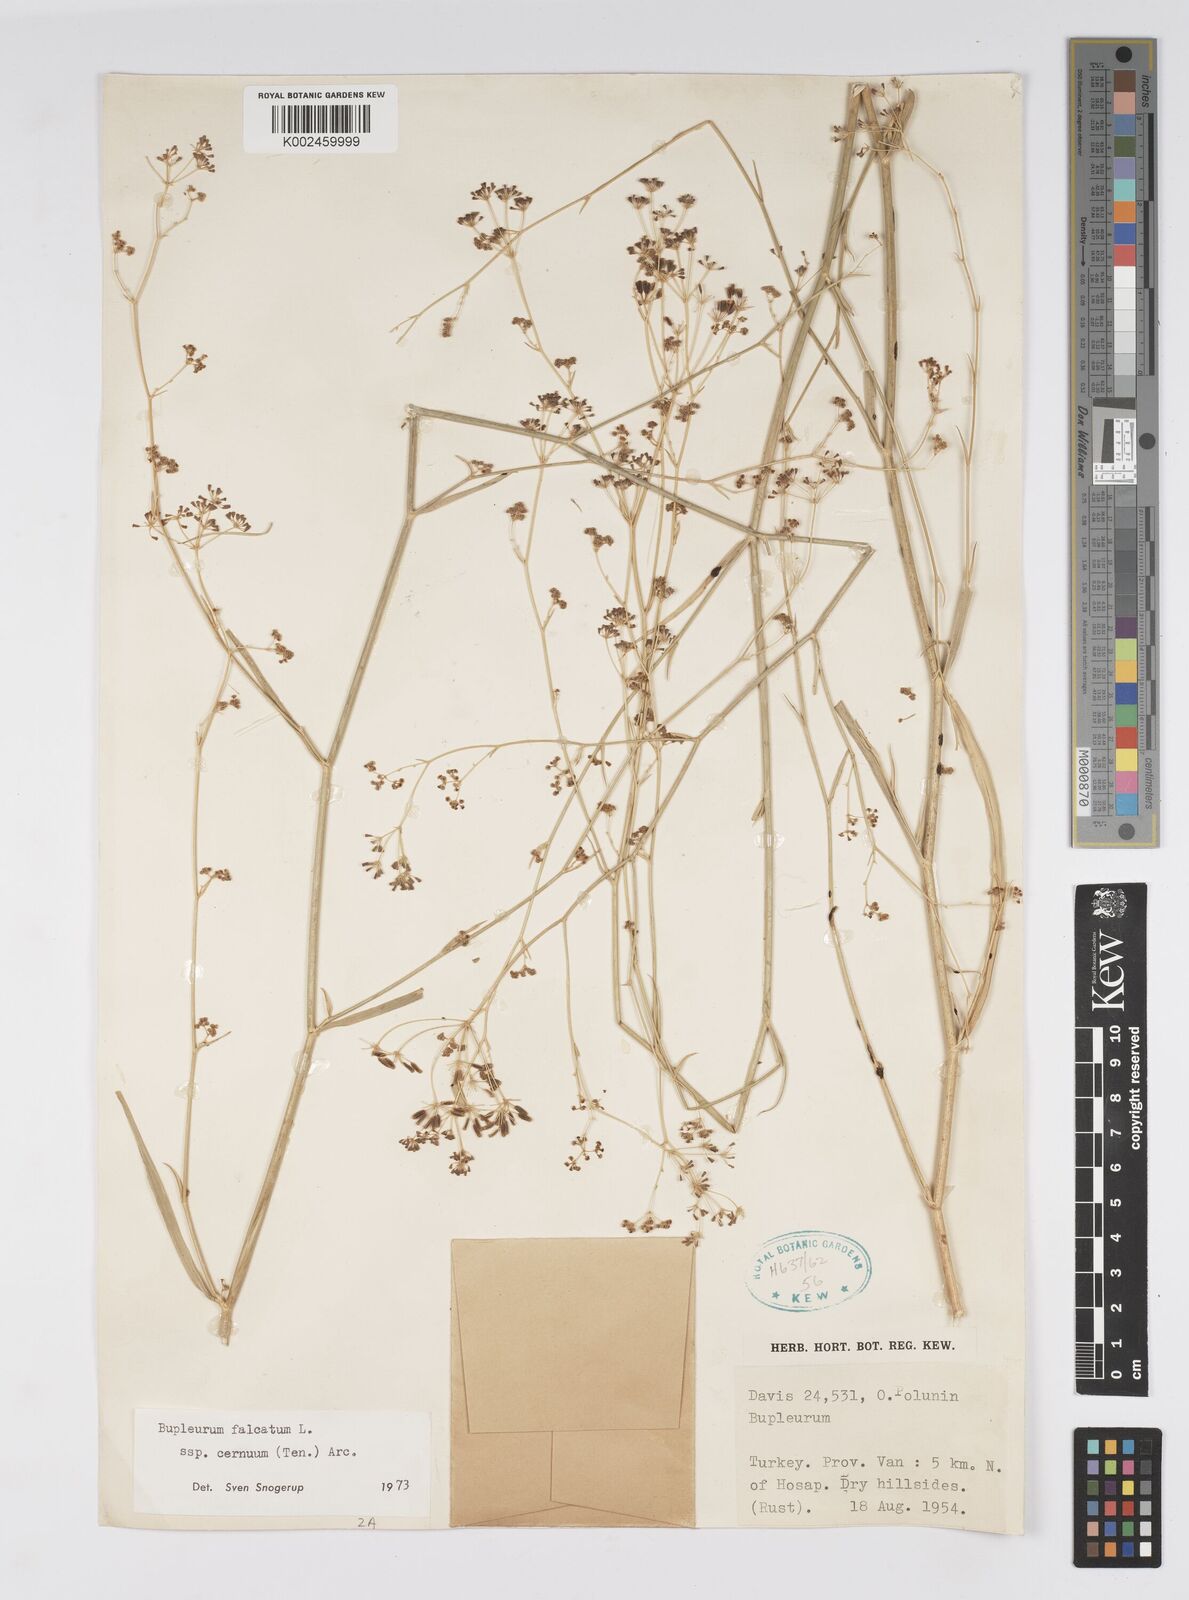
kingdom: Plantae
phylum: Tracheophyta
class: Magnoliopsida
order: Apiales
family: Apiaceae
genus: Bupleurum
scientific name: Bupleurum falcatum
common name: Sickle-leaved hare's-ear
